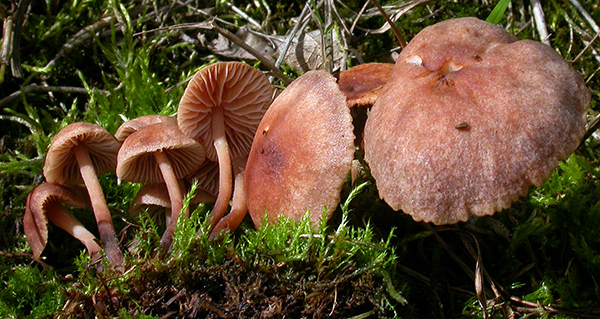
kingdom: Fungi
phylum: Basidiomycota
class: Agaricomycetes
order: Agaricales
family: Omphalotaceae
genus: Gymnopus
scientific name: Gymnopus impudicus
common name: fesen fladhat
